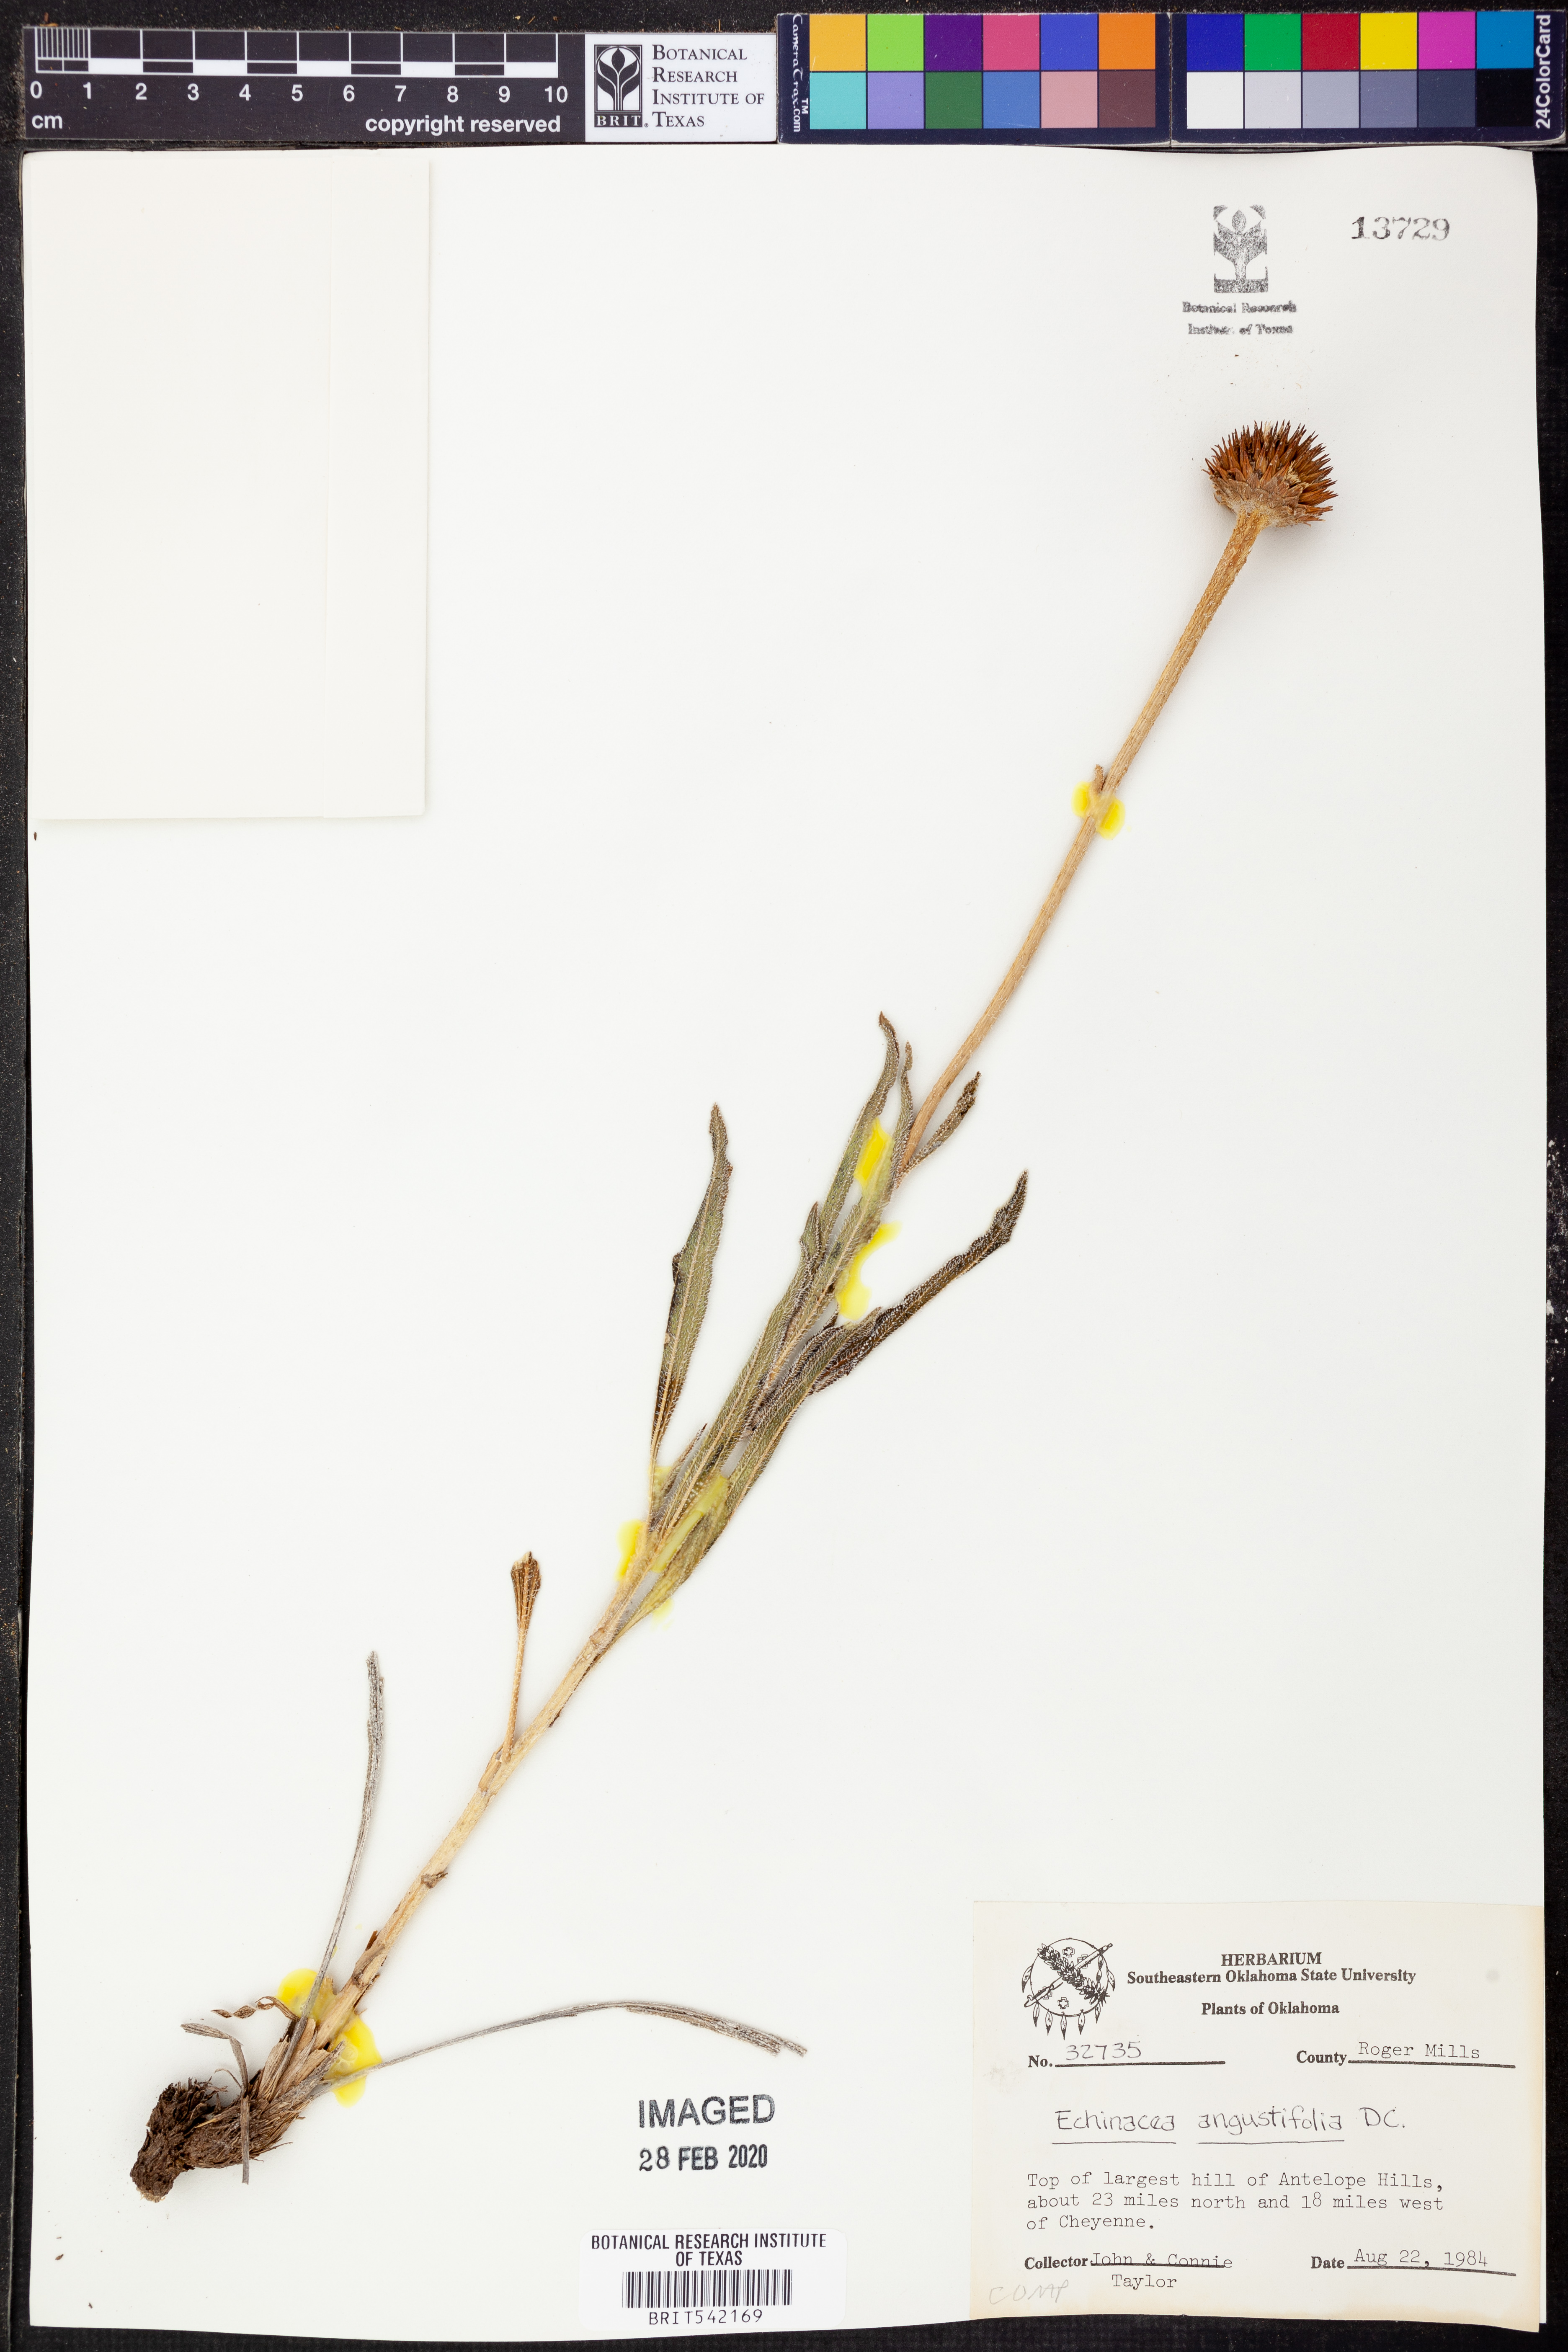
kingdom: Plantae
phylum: Tracheophyta
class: Magnoliopsida
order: Asterales
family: Asteraceae
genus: Echinacea
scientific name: Echinacea angustifolia
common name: Black-sampson echinacea
